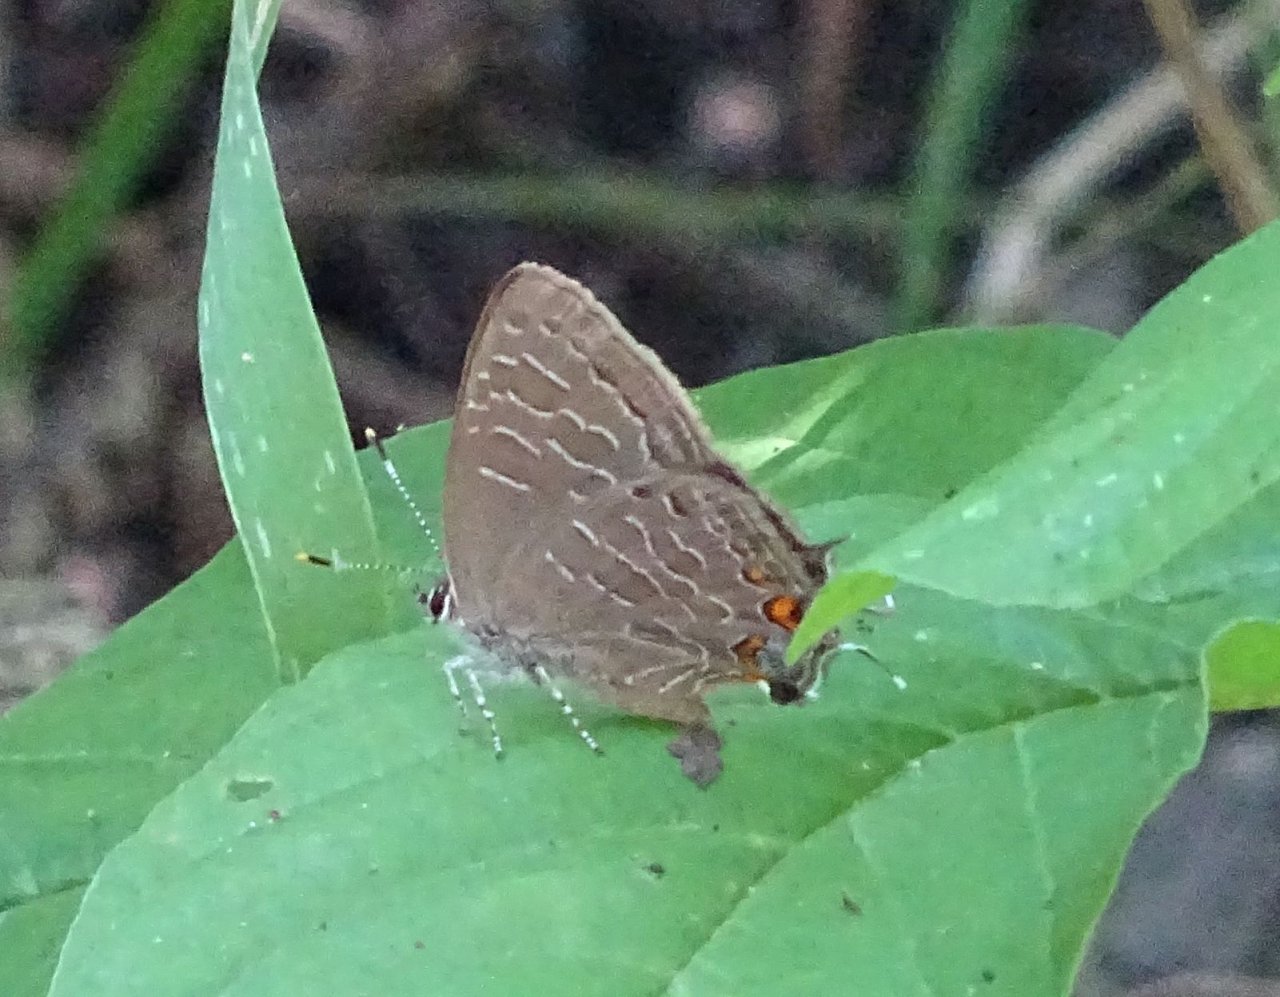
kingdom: Animalia
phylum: Arthropoda
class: Insecta
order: Lepidoptera
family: Lycaenidae
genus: Satyrium
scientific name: Satyrium liparops
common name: Striped Hairstreak
